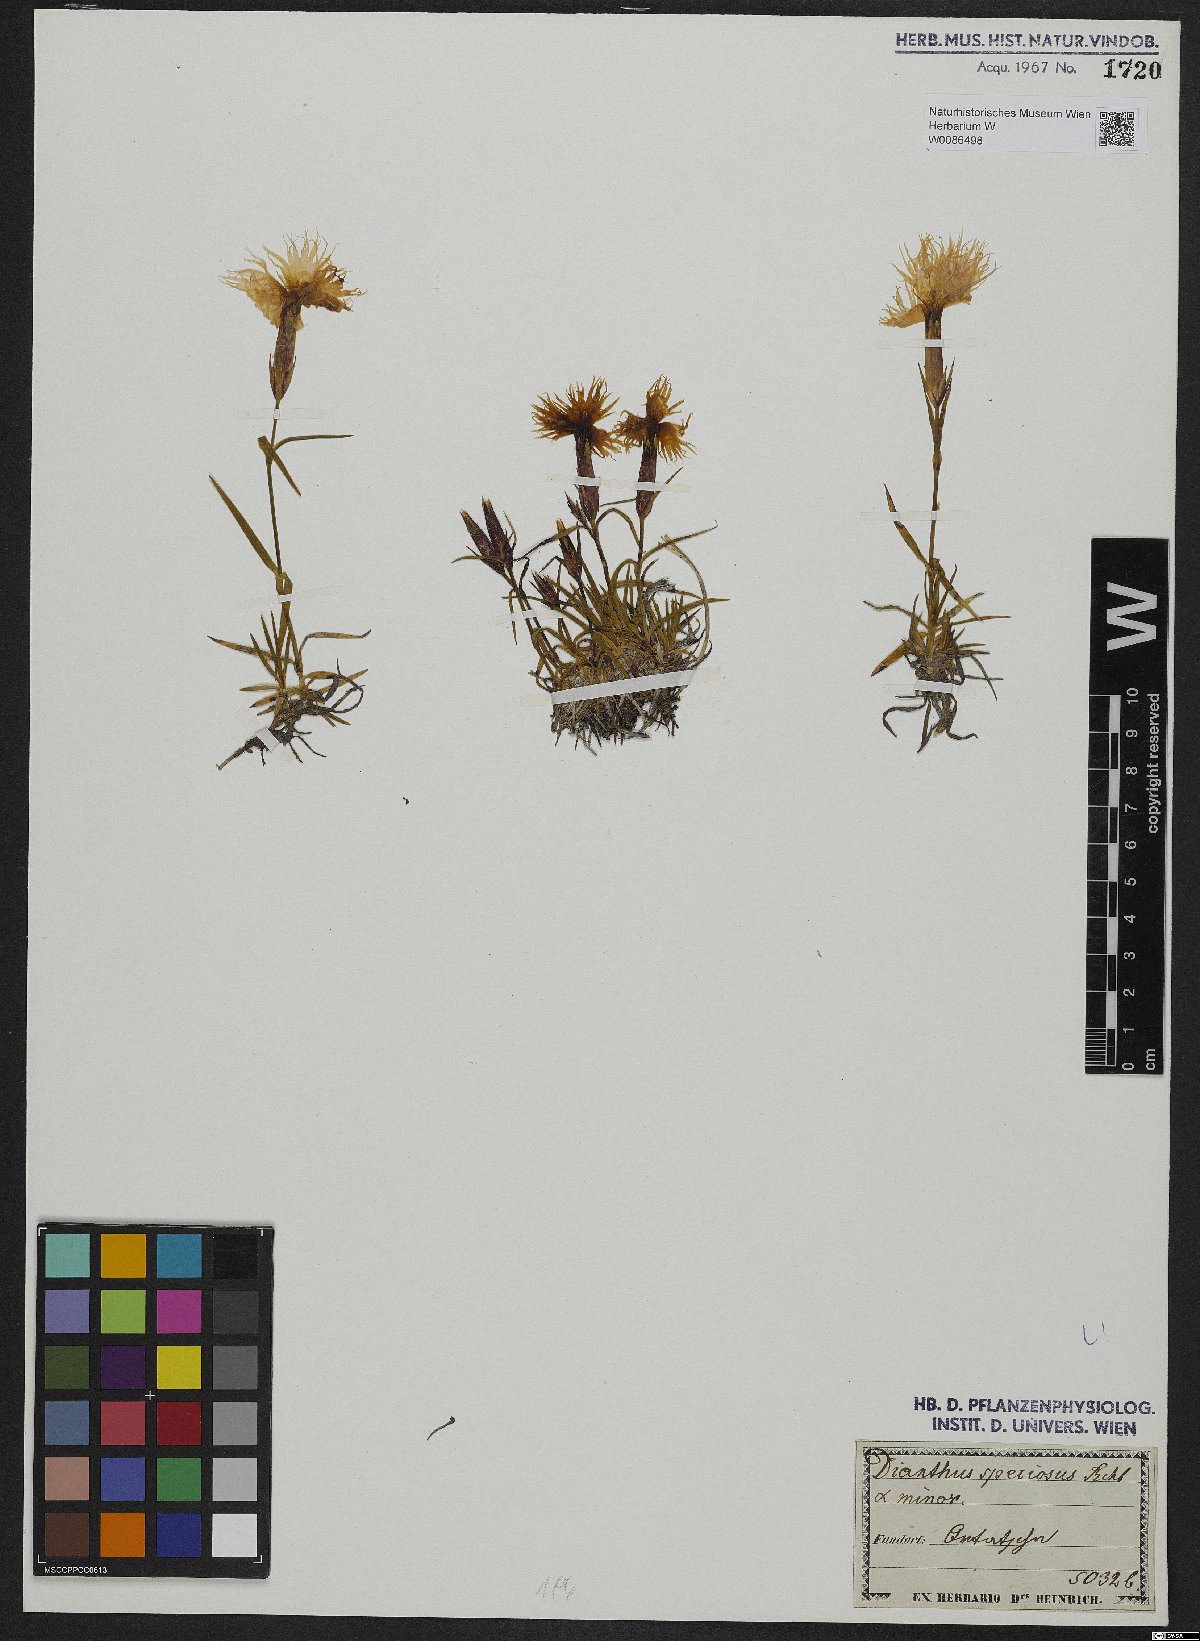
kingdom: Plantae
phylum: Tracheophyta
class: Magnoliopsida
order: Caryophyllales
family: Caryophyllaceae
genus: Dianthus
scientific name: Dianthus superbus
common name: Fringed pink
